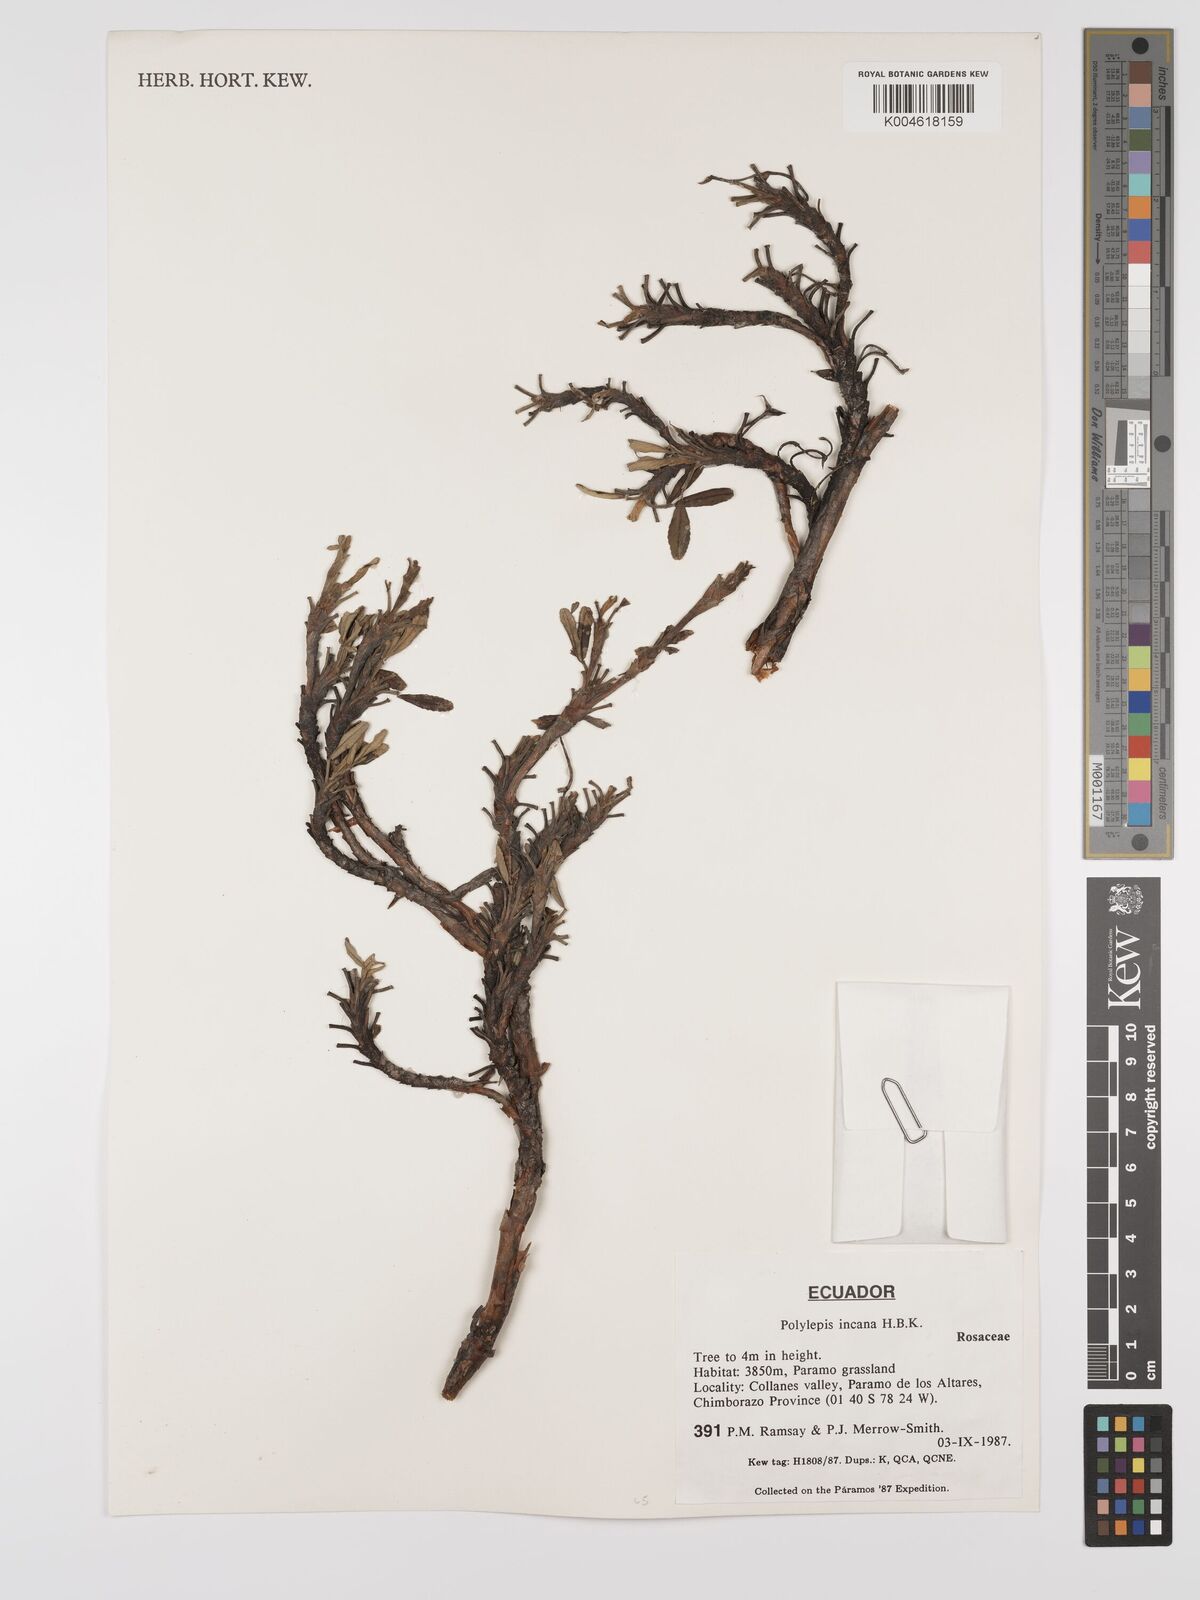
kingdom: Plantae
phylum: Tracheophyta
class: Magnoliopsida
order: Rosales
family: Rosaceae
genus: Polylepis
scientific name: Polylepis incana
